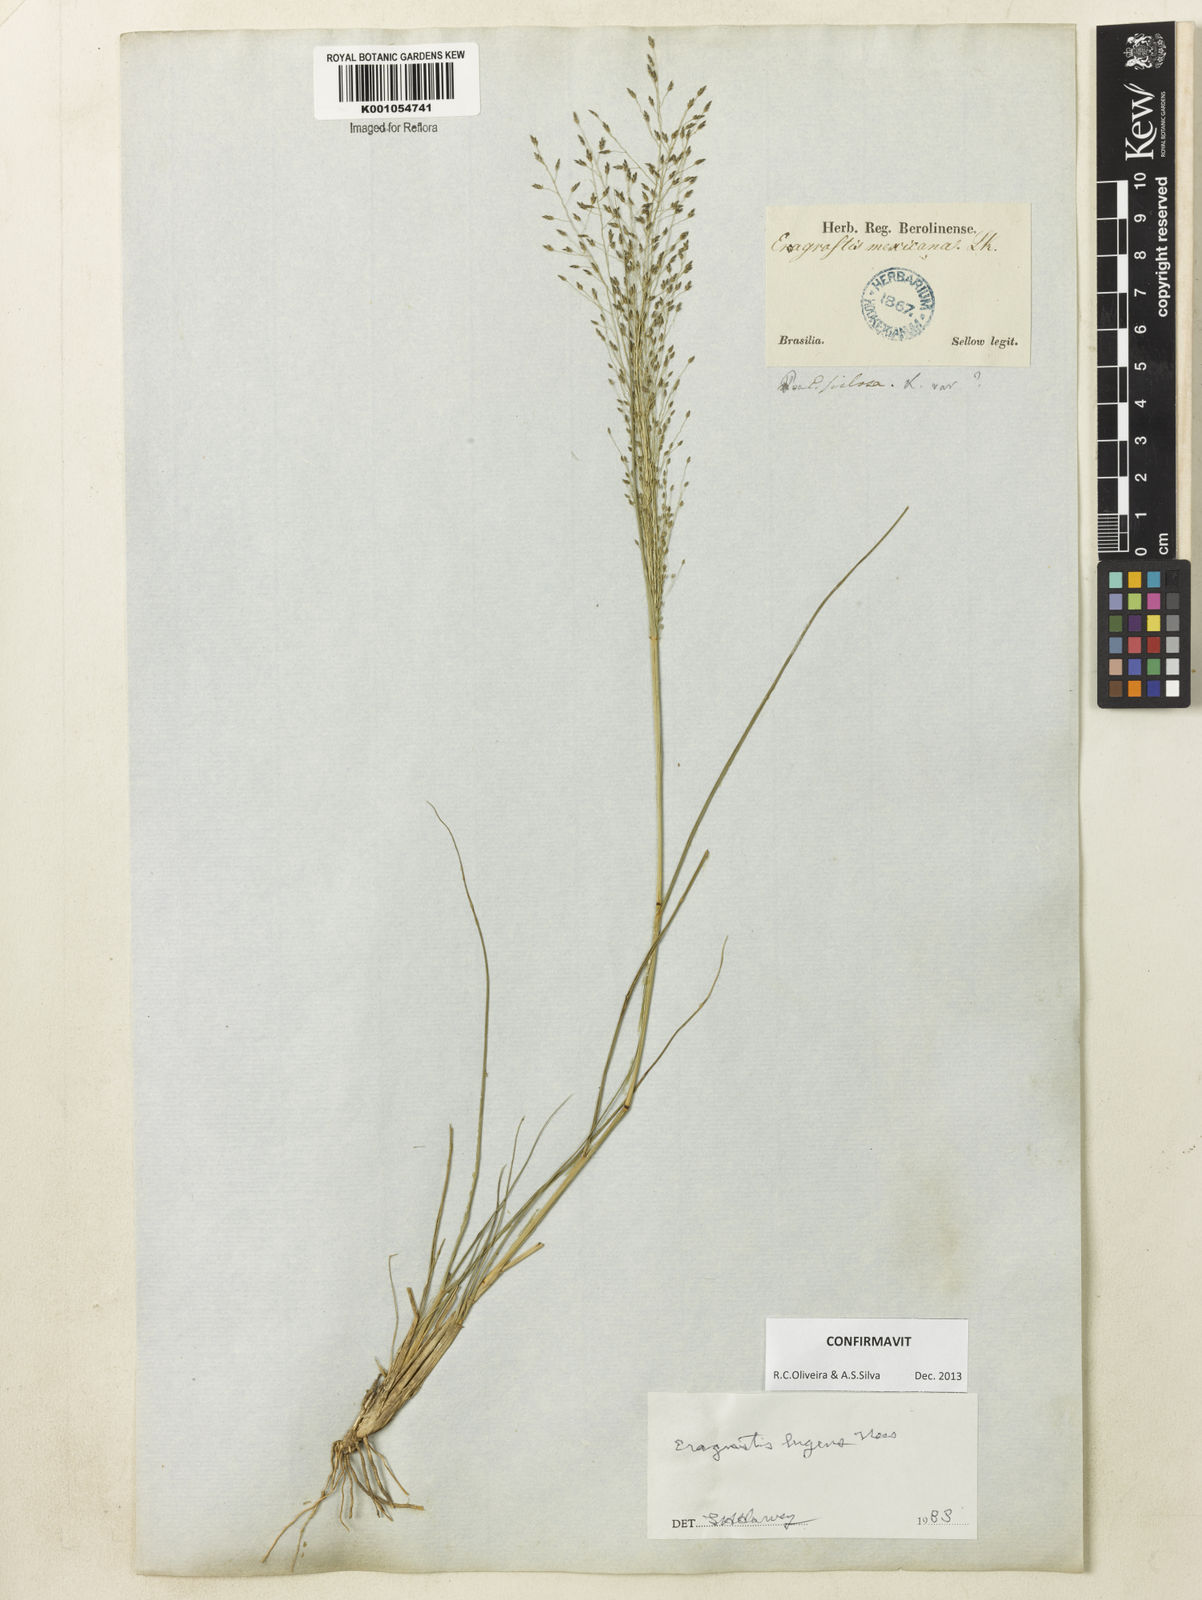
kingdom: Plantae
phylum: Tracheophyta
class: Liliopsida
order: Poales
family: Poaceae
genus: Eragrostis
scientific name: Eragrostis lugens
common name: Mourning love grass
